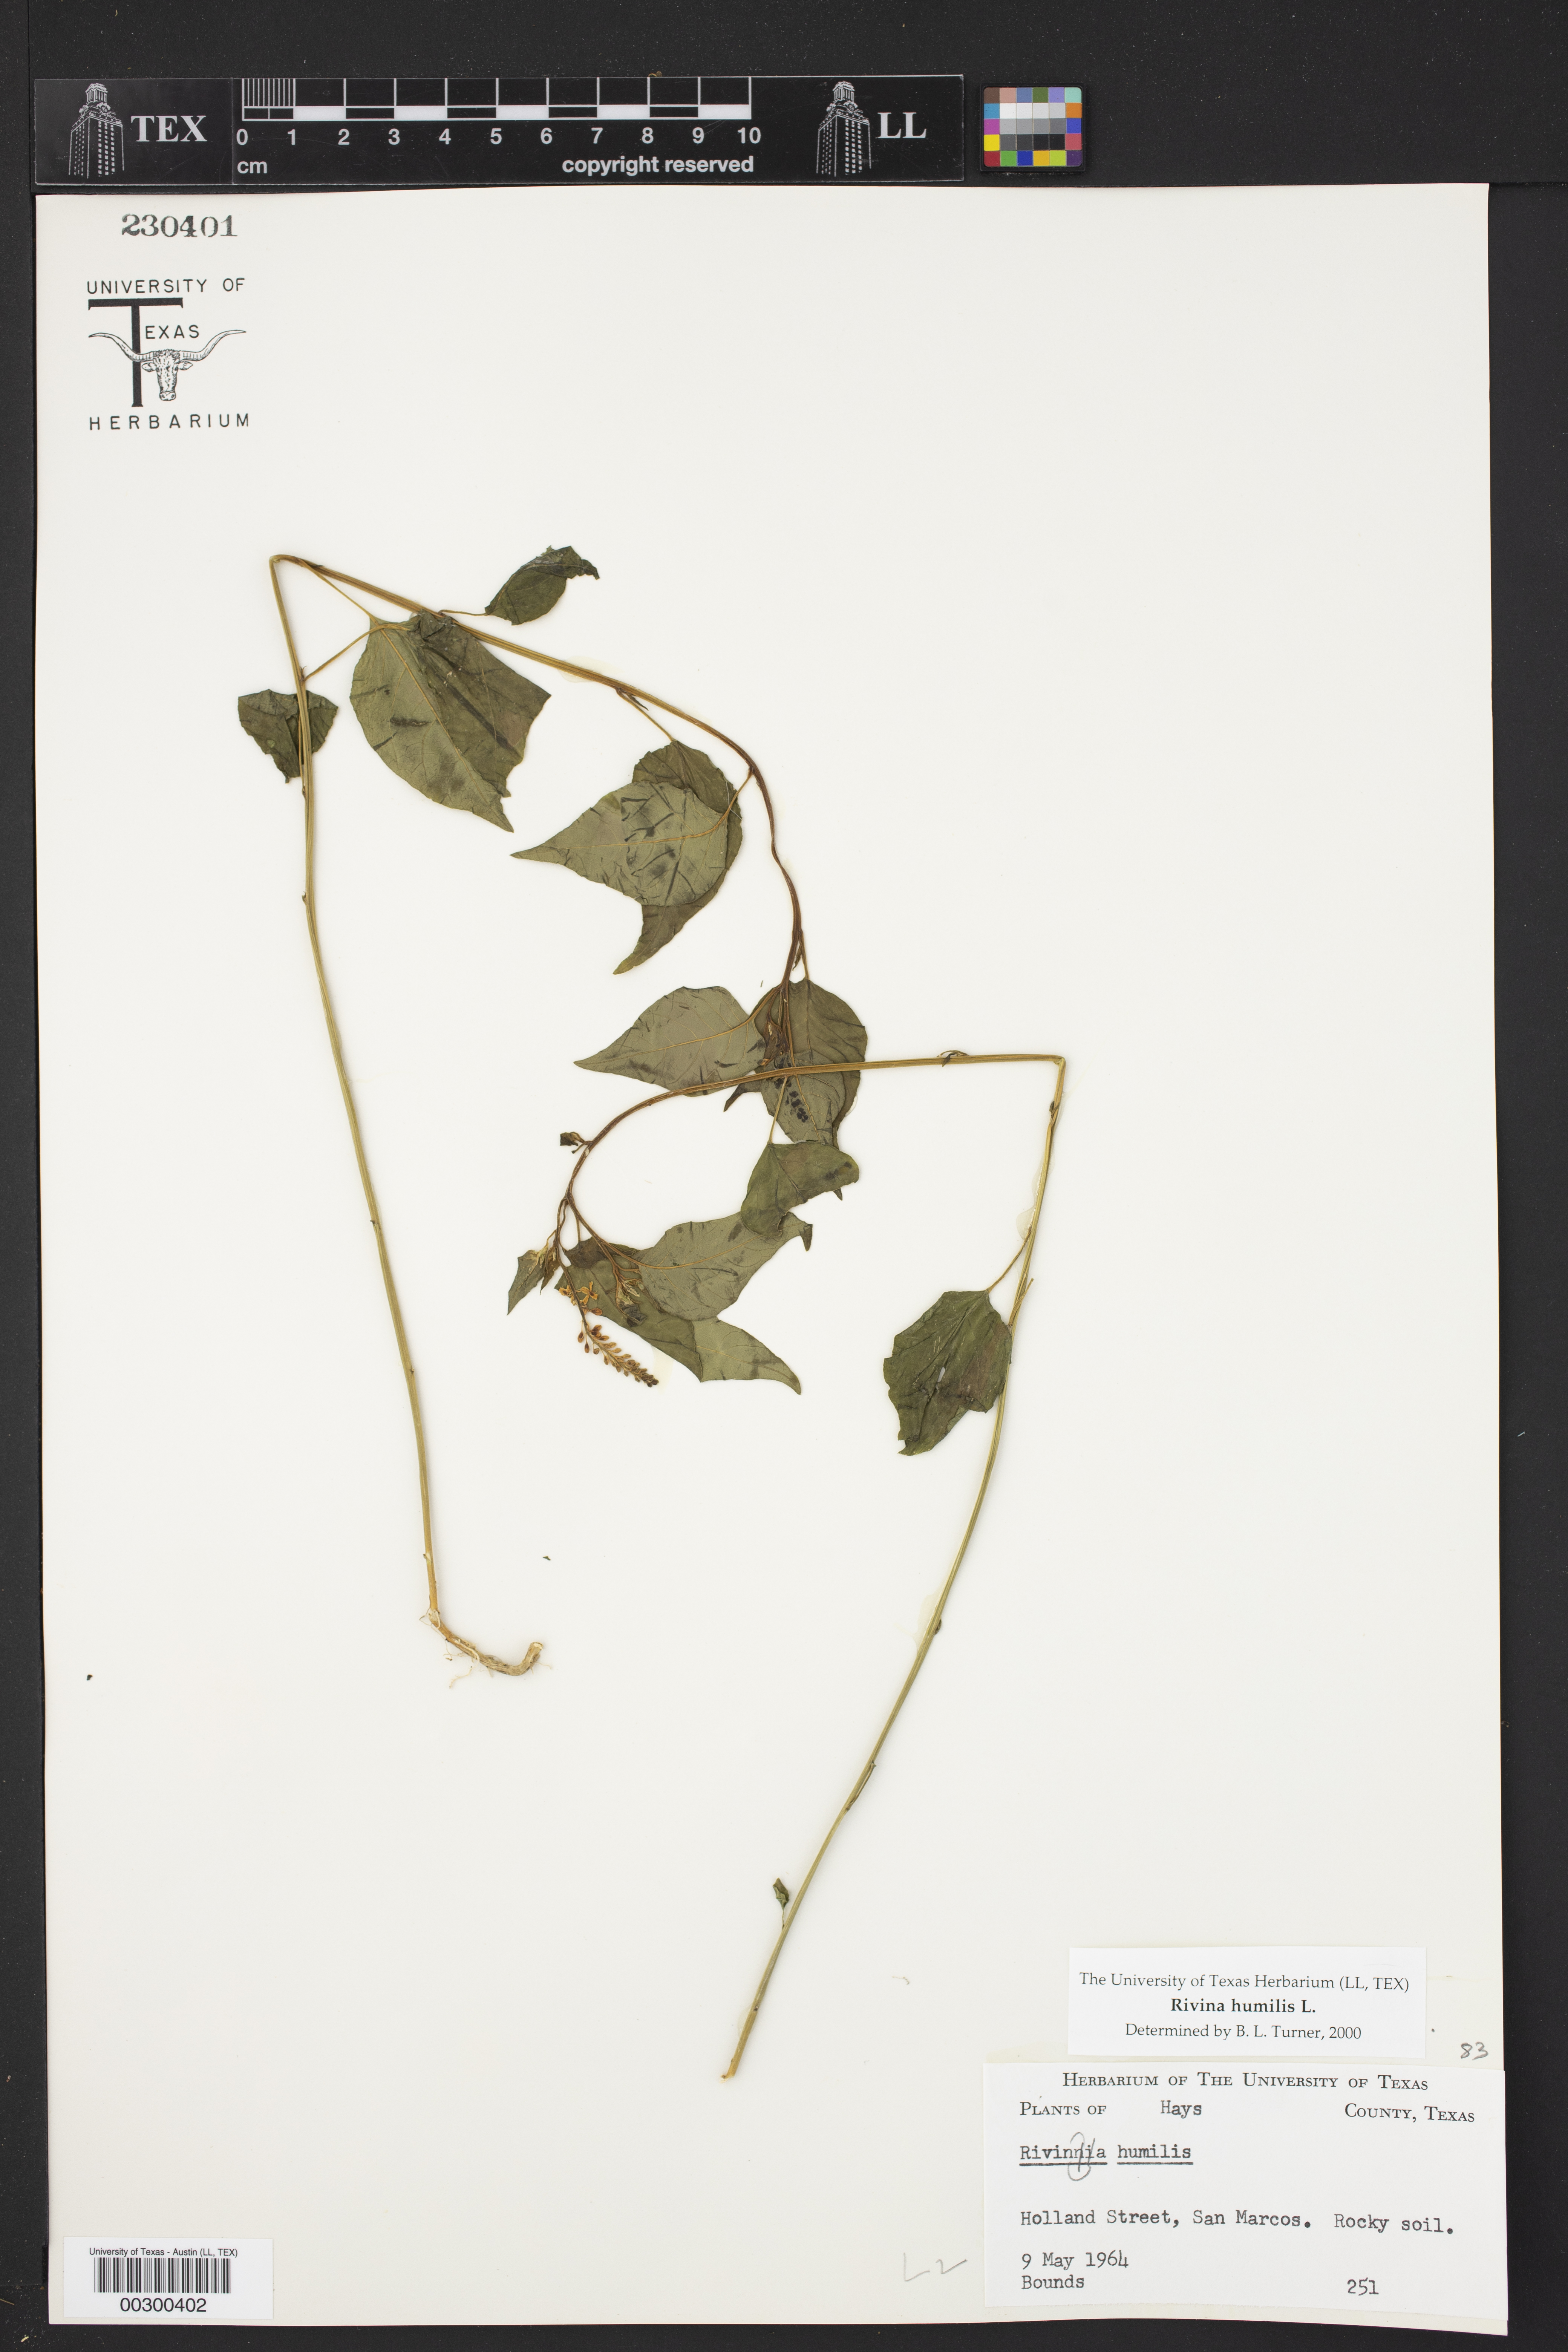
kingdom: Plantae
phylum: Tracheophyta
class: Magnoliopsida
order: Caryophyllales
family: Phytolaccaceae
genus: Rivina
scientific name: Rivina humilis
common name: Rougeplant
